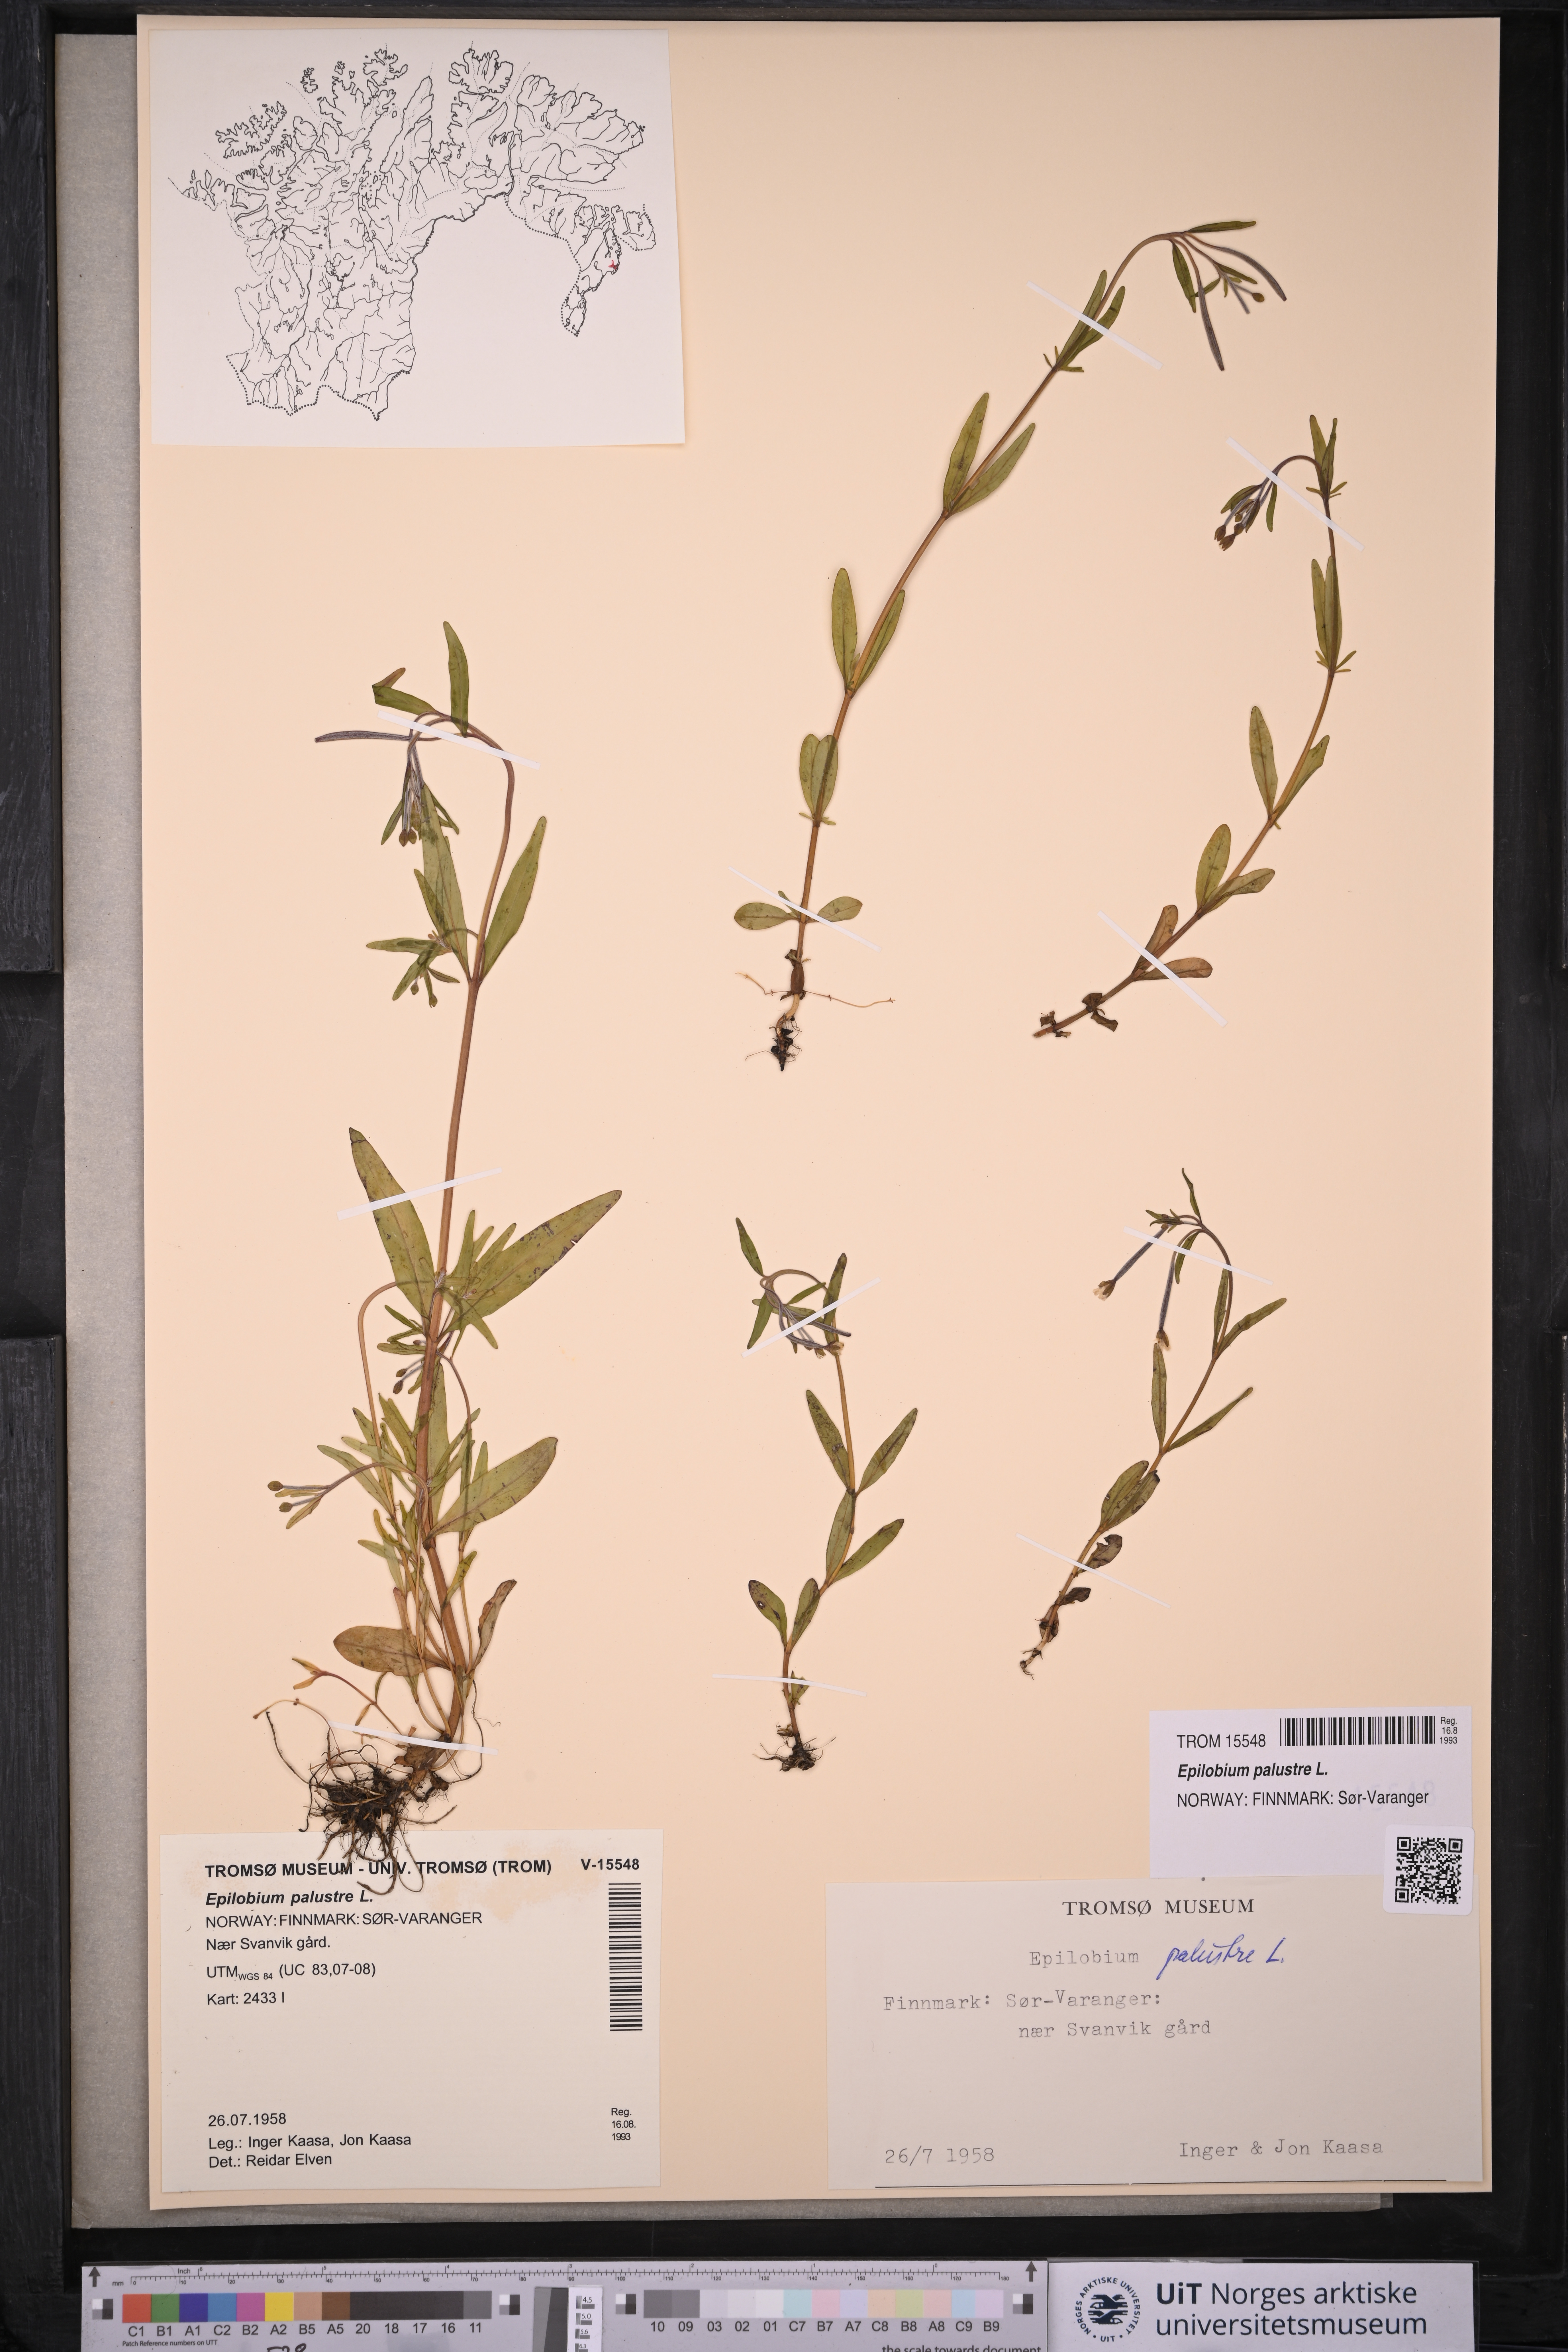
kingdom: Plantae
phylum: Tracheophyta
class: Magnoliopsida
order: Myrtales
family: Onagraceae
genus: Epilobium
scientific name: Epilobium palustre
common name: Marsh willowherb
